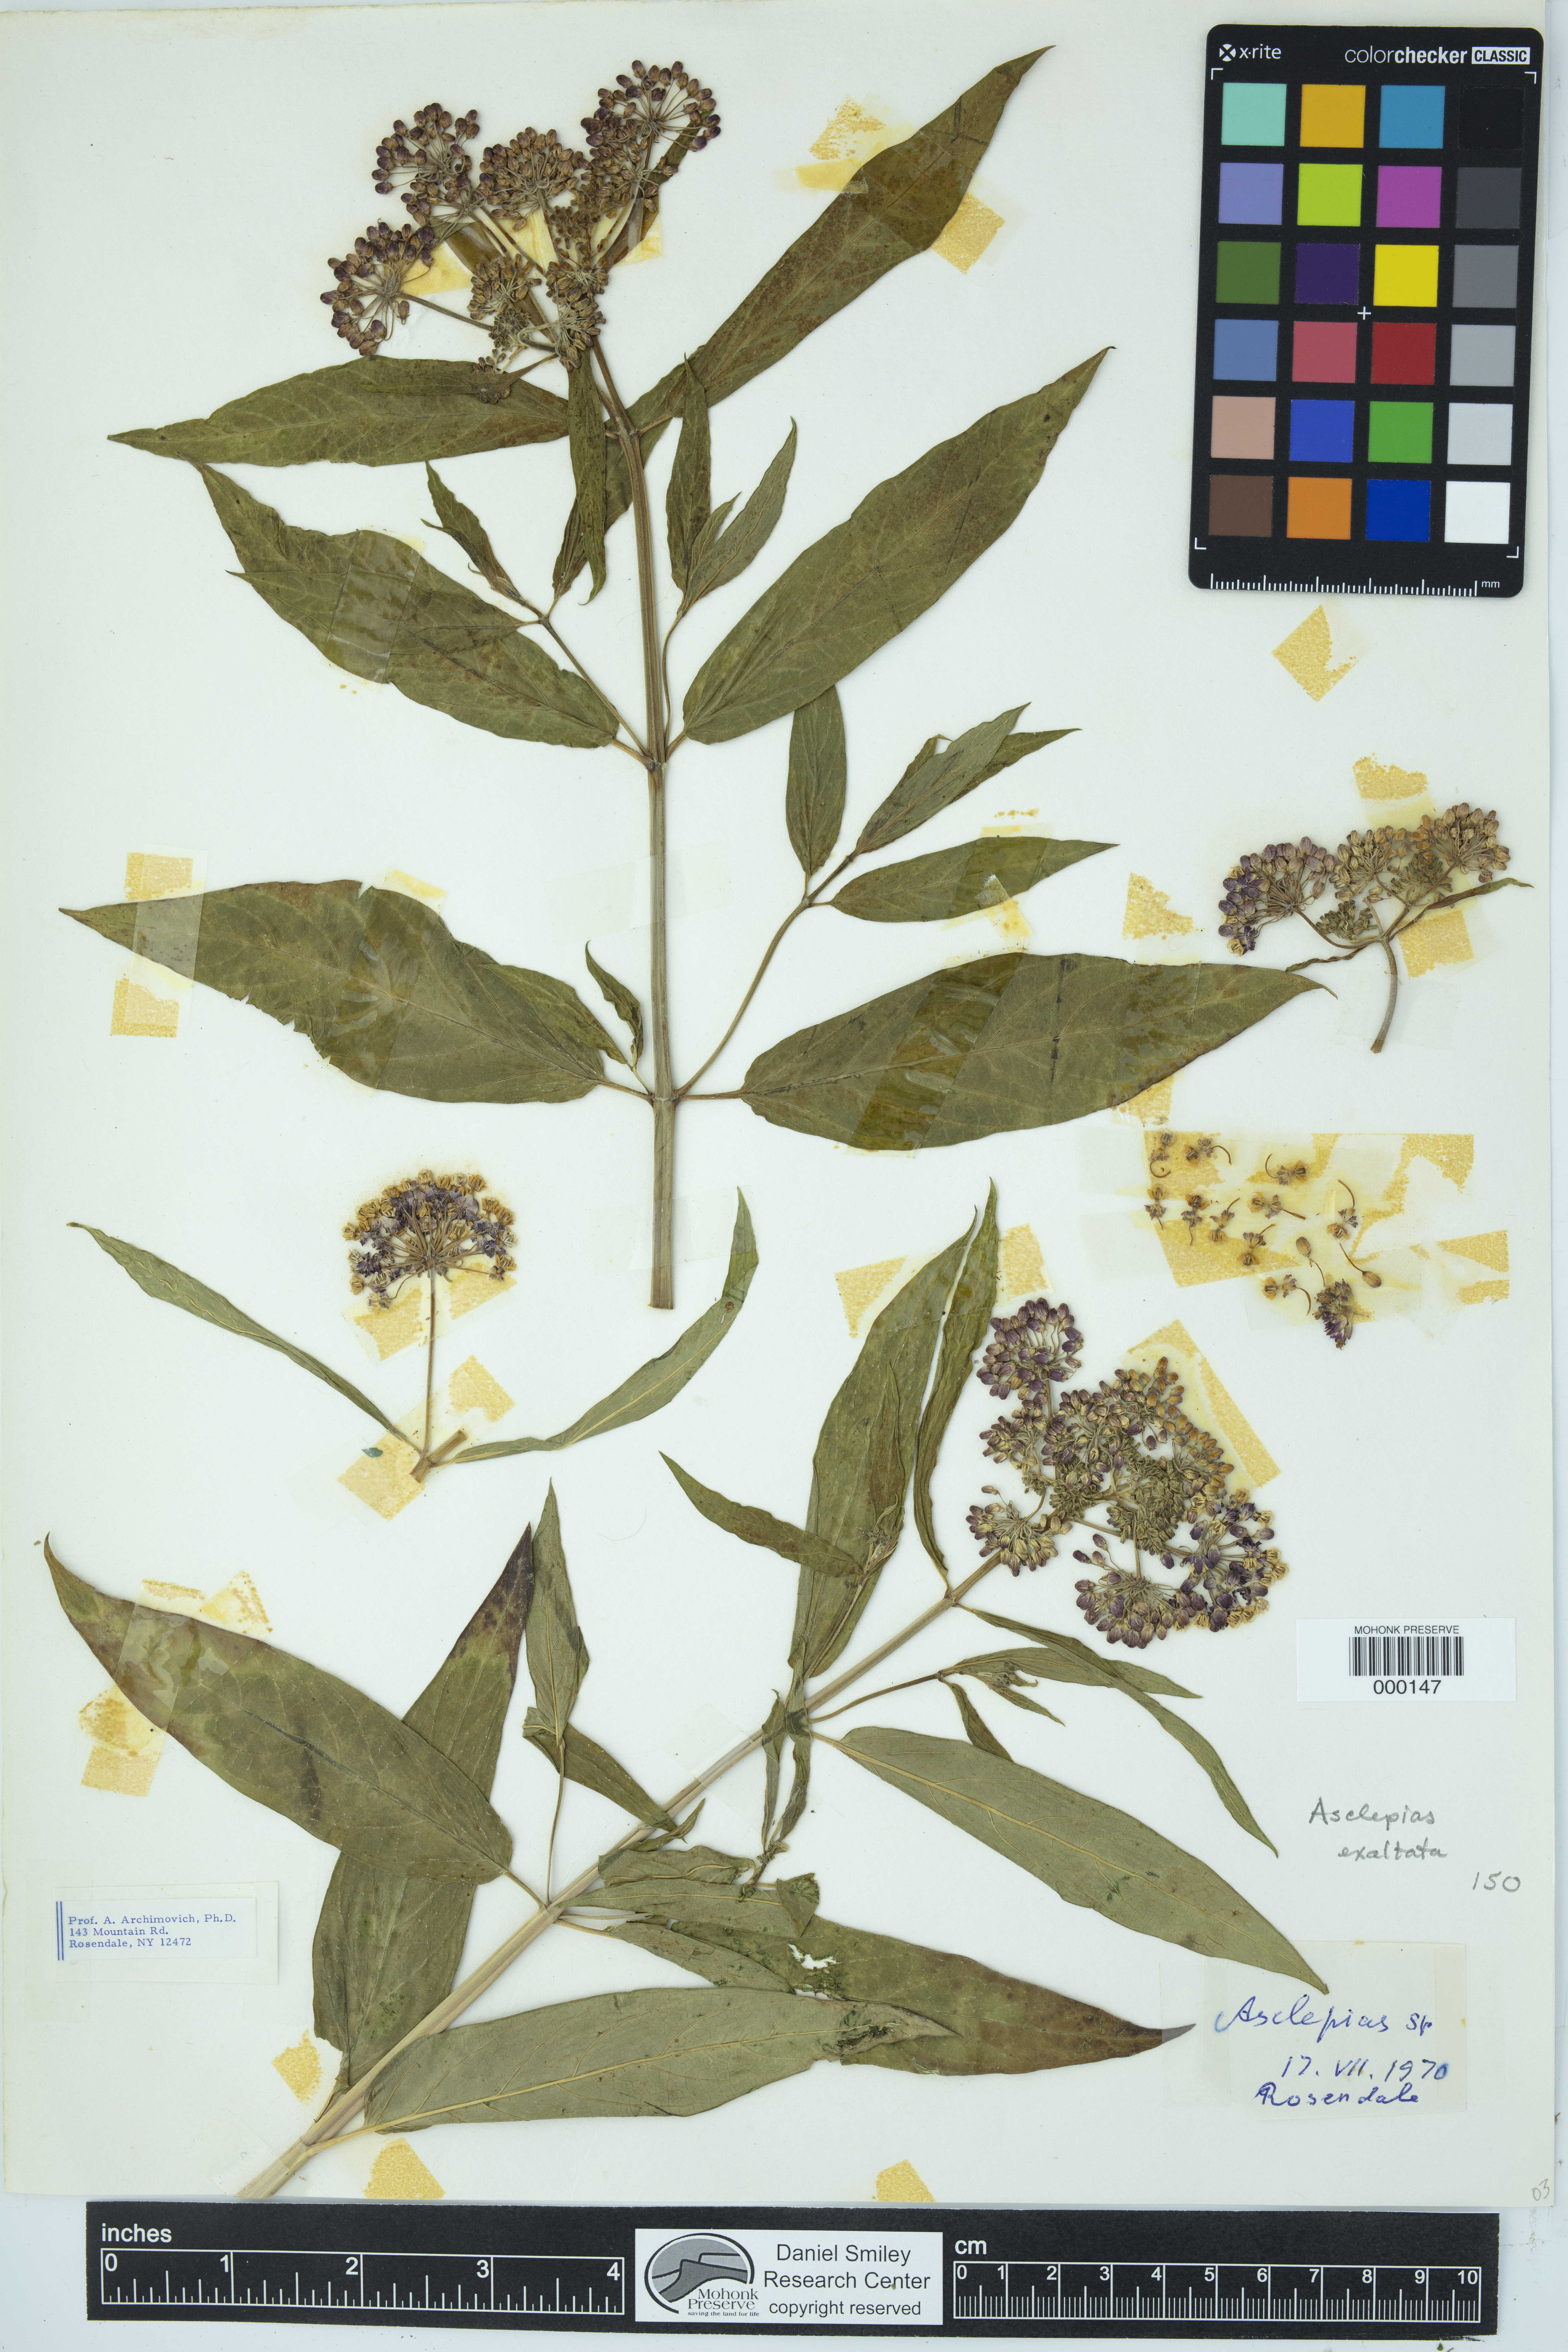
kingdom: Plantae
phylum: Tracheophyta
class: Magnoliopsida
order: Gentianales
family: Apocynaceae
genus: Asclepias
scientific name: Asclepias exaltata
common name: Poke milkweed
